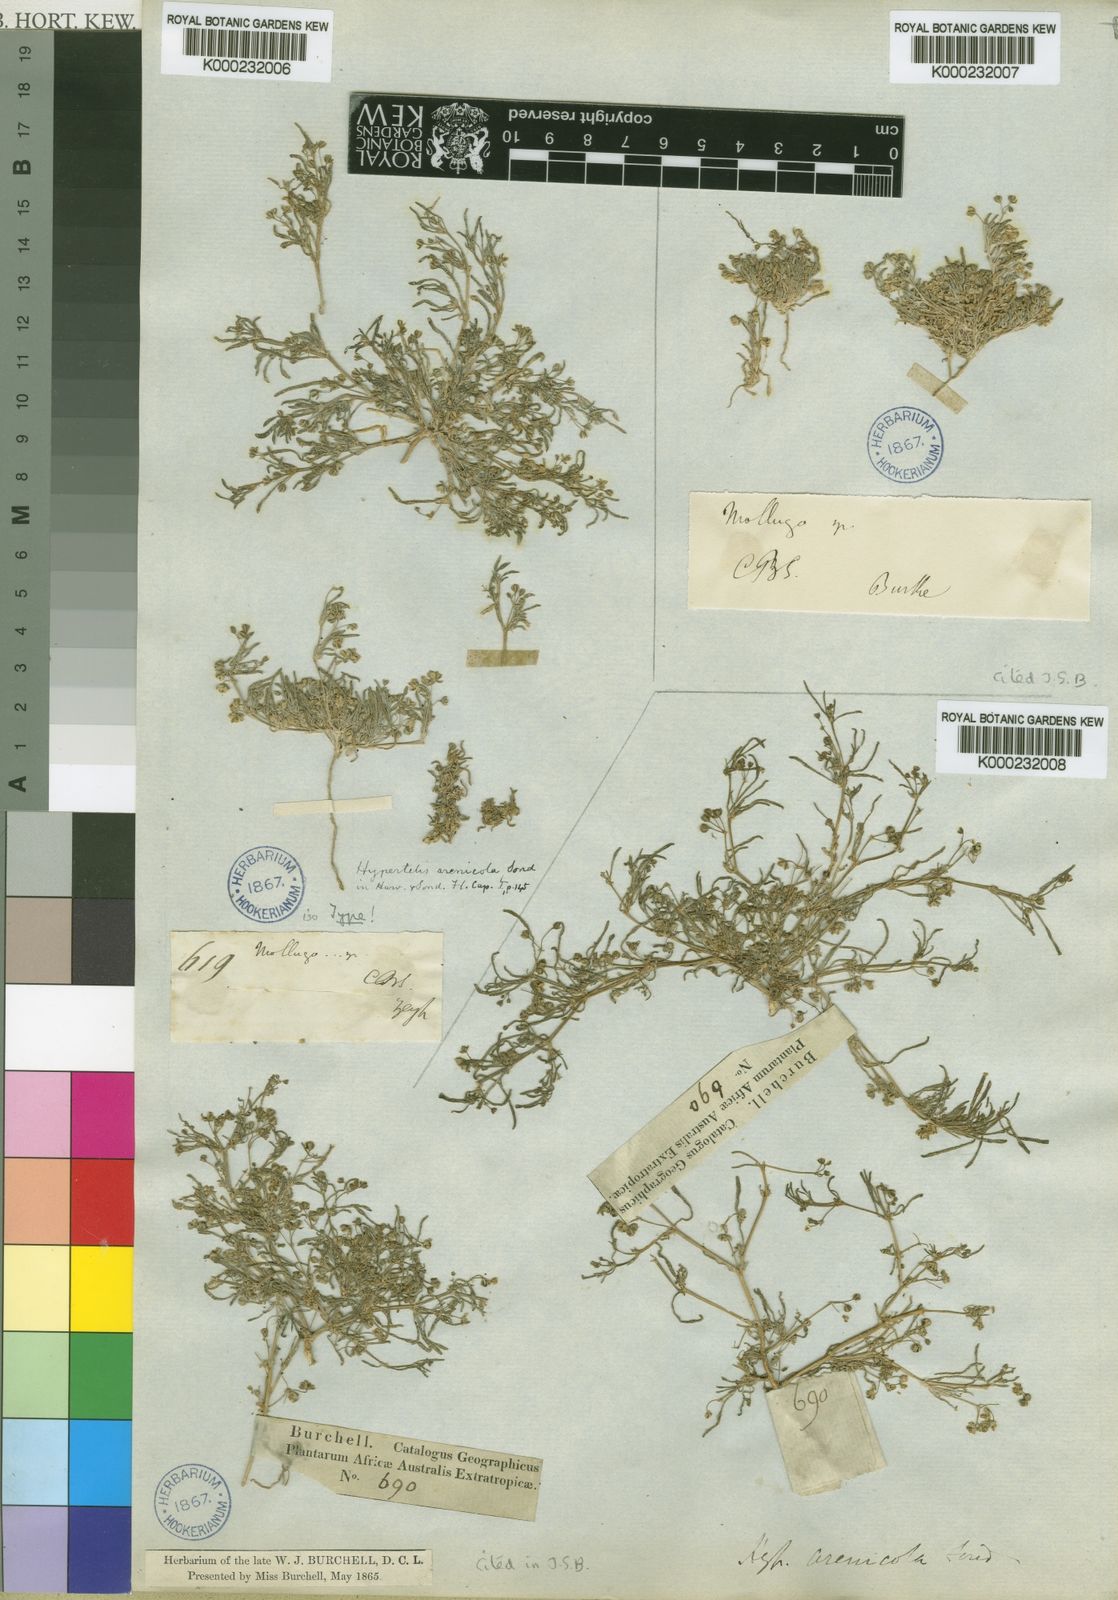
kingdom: Plantae
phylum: Tracheophyta
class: Magnoliopsida
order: Caryophyllales
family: Kewaceae
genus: Kewa
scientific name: Kewa arenicola
